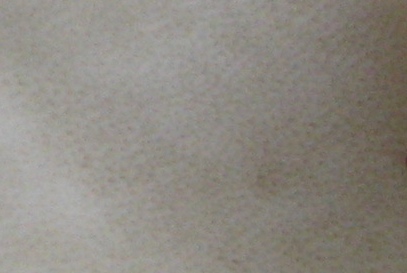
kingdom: Fungi
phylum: Basidiomycota
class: Agaricomycetes
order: Polyporales
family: Incrustoporiaceae
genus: Tyromyces
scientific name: Tyromyces lacteus
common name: mælkehvid kødporesvamp
